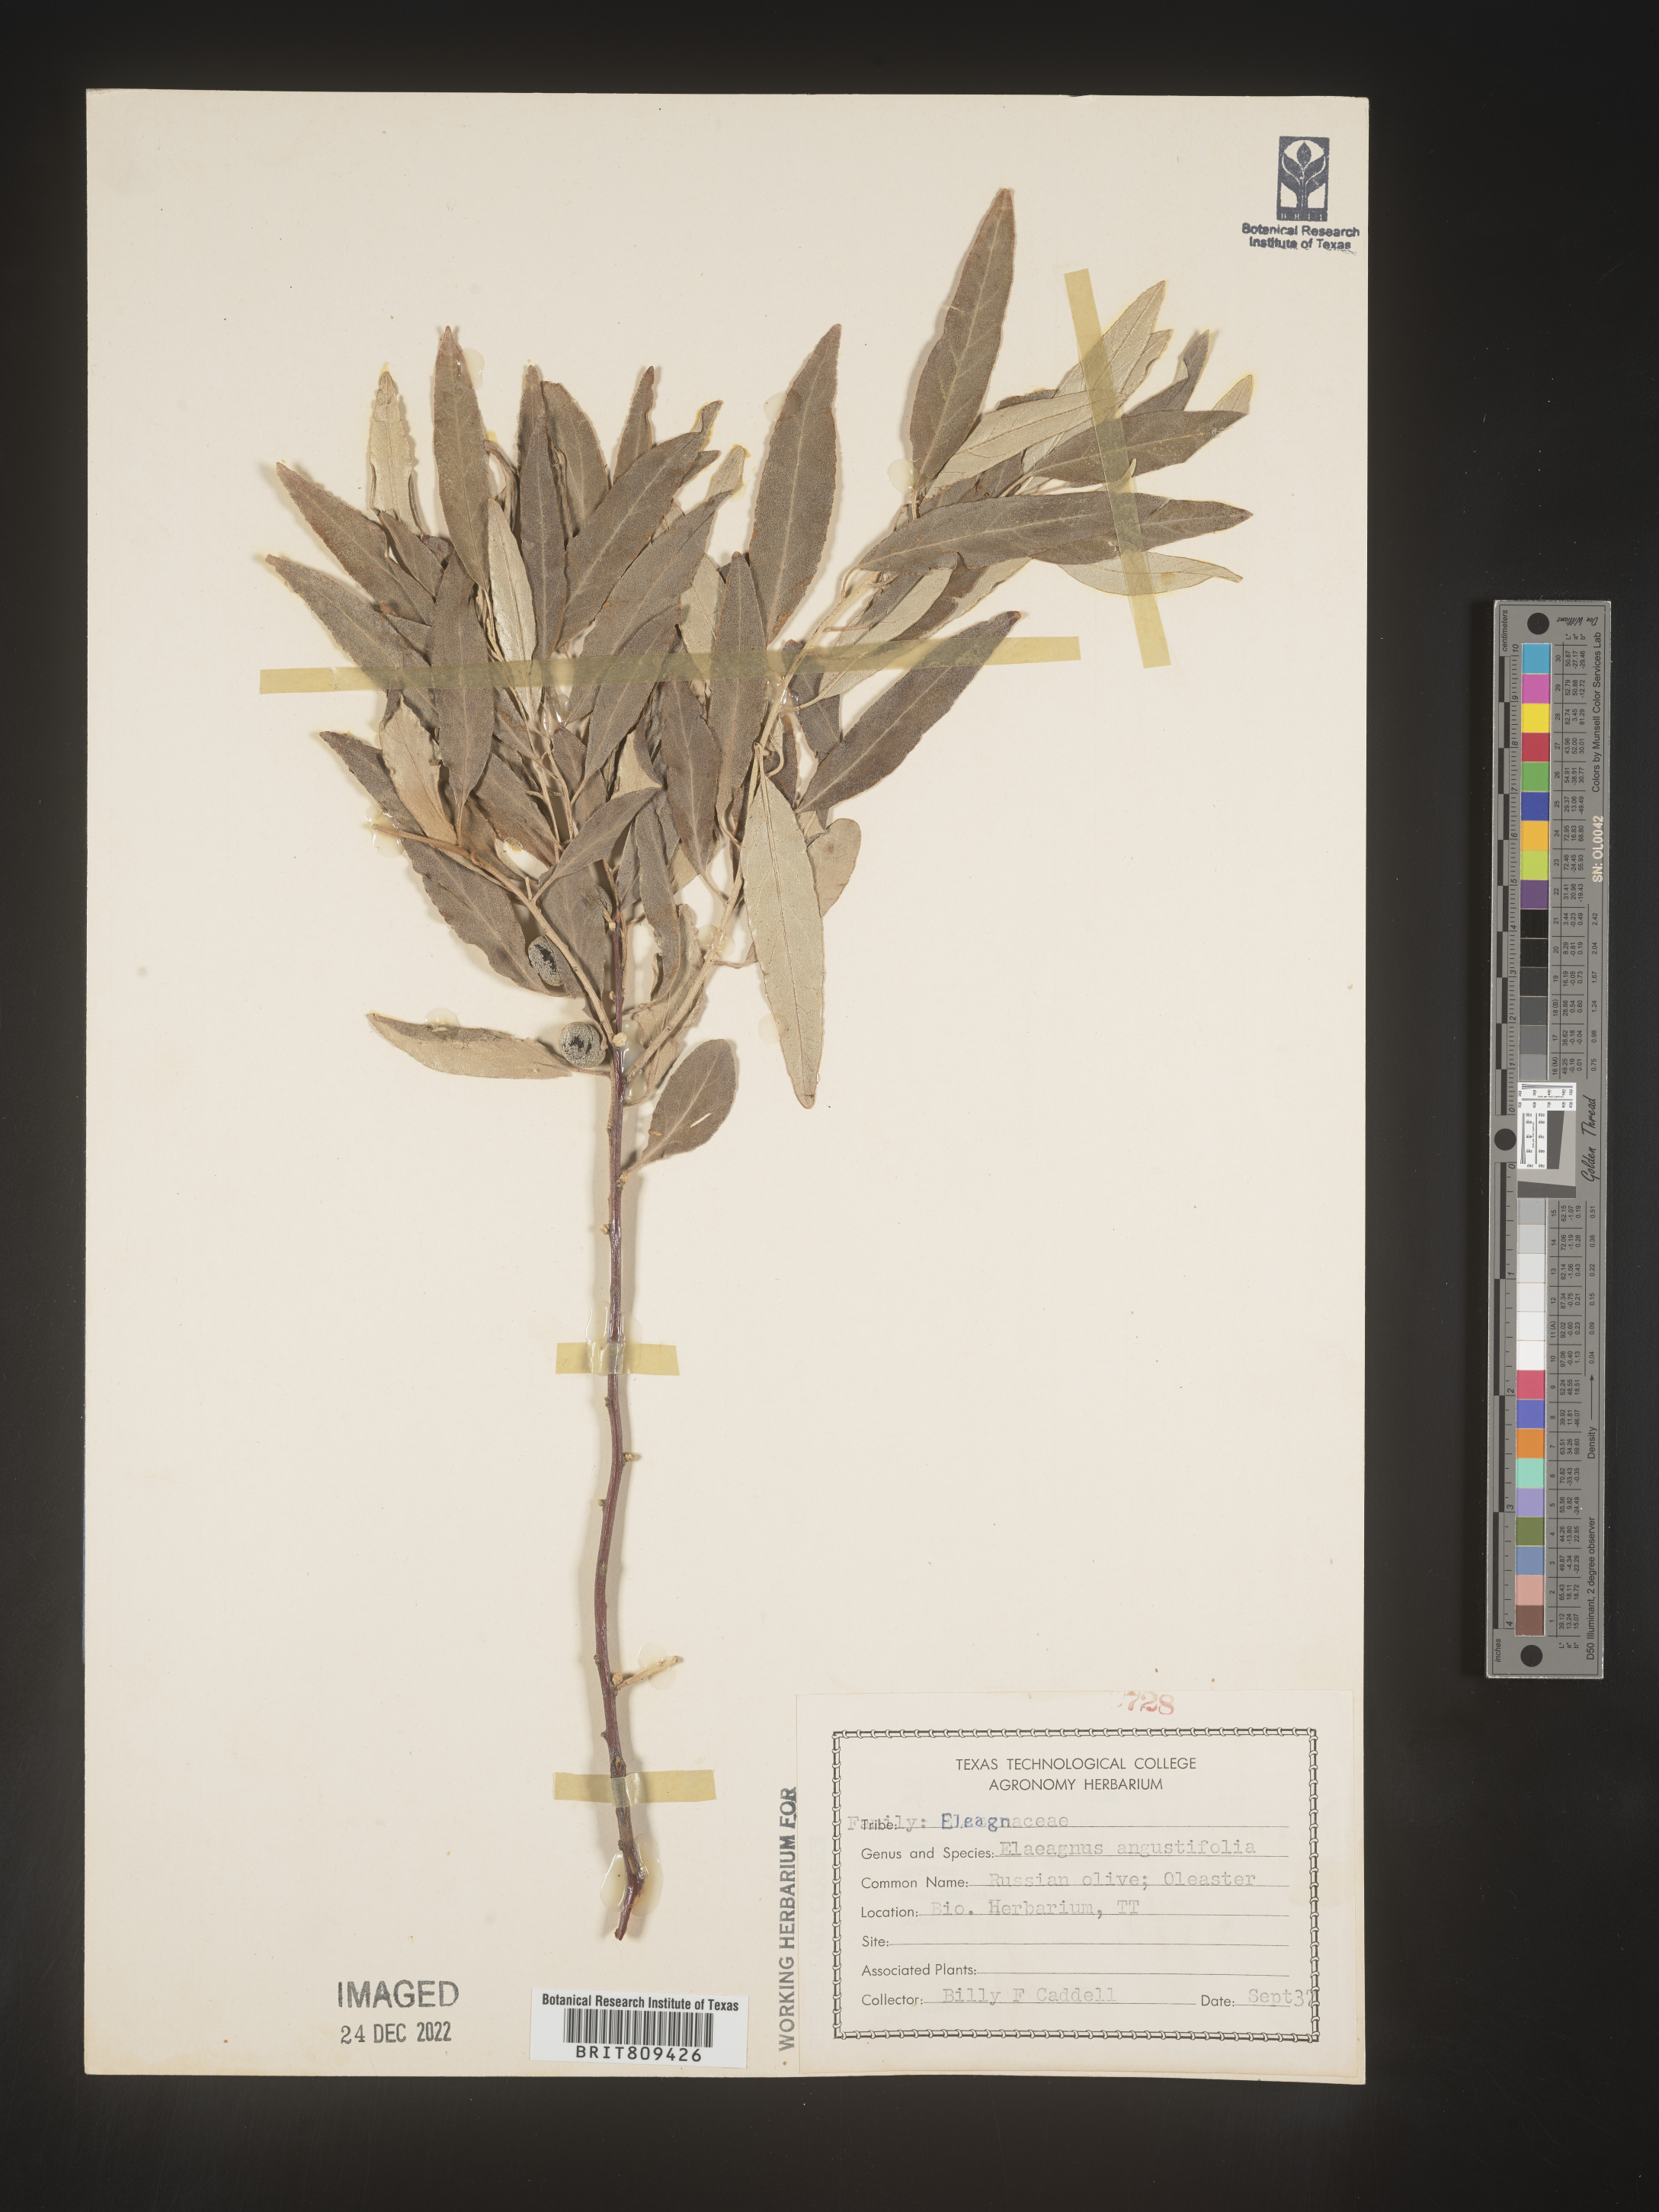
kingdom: Plantae
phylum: Tracheophyta
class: Magnoliopsida
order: Rosales
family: Elaeagnaceae
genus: Elaeagnus
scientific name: Elaeagnus
